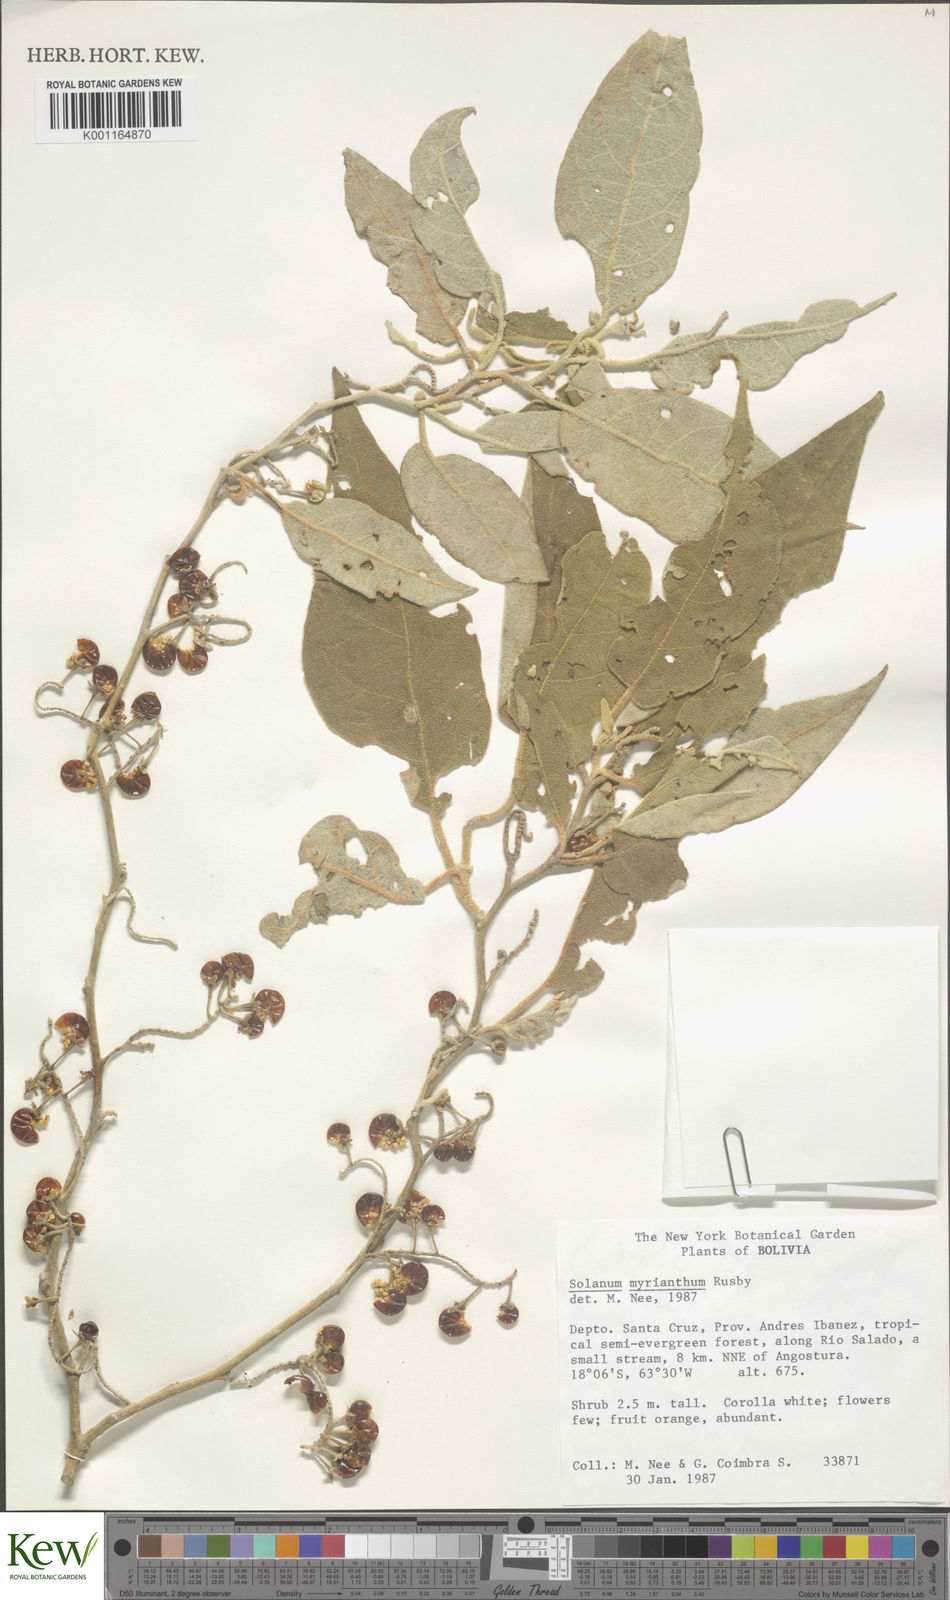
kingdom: Plantae
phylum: Tracheophyta
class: Magnoliopsida
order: Solanales
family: Solanaceae
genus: Solanum
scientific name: Solanum myriacanthum
